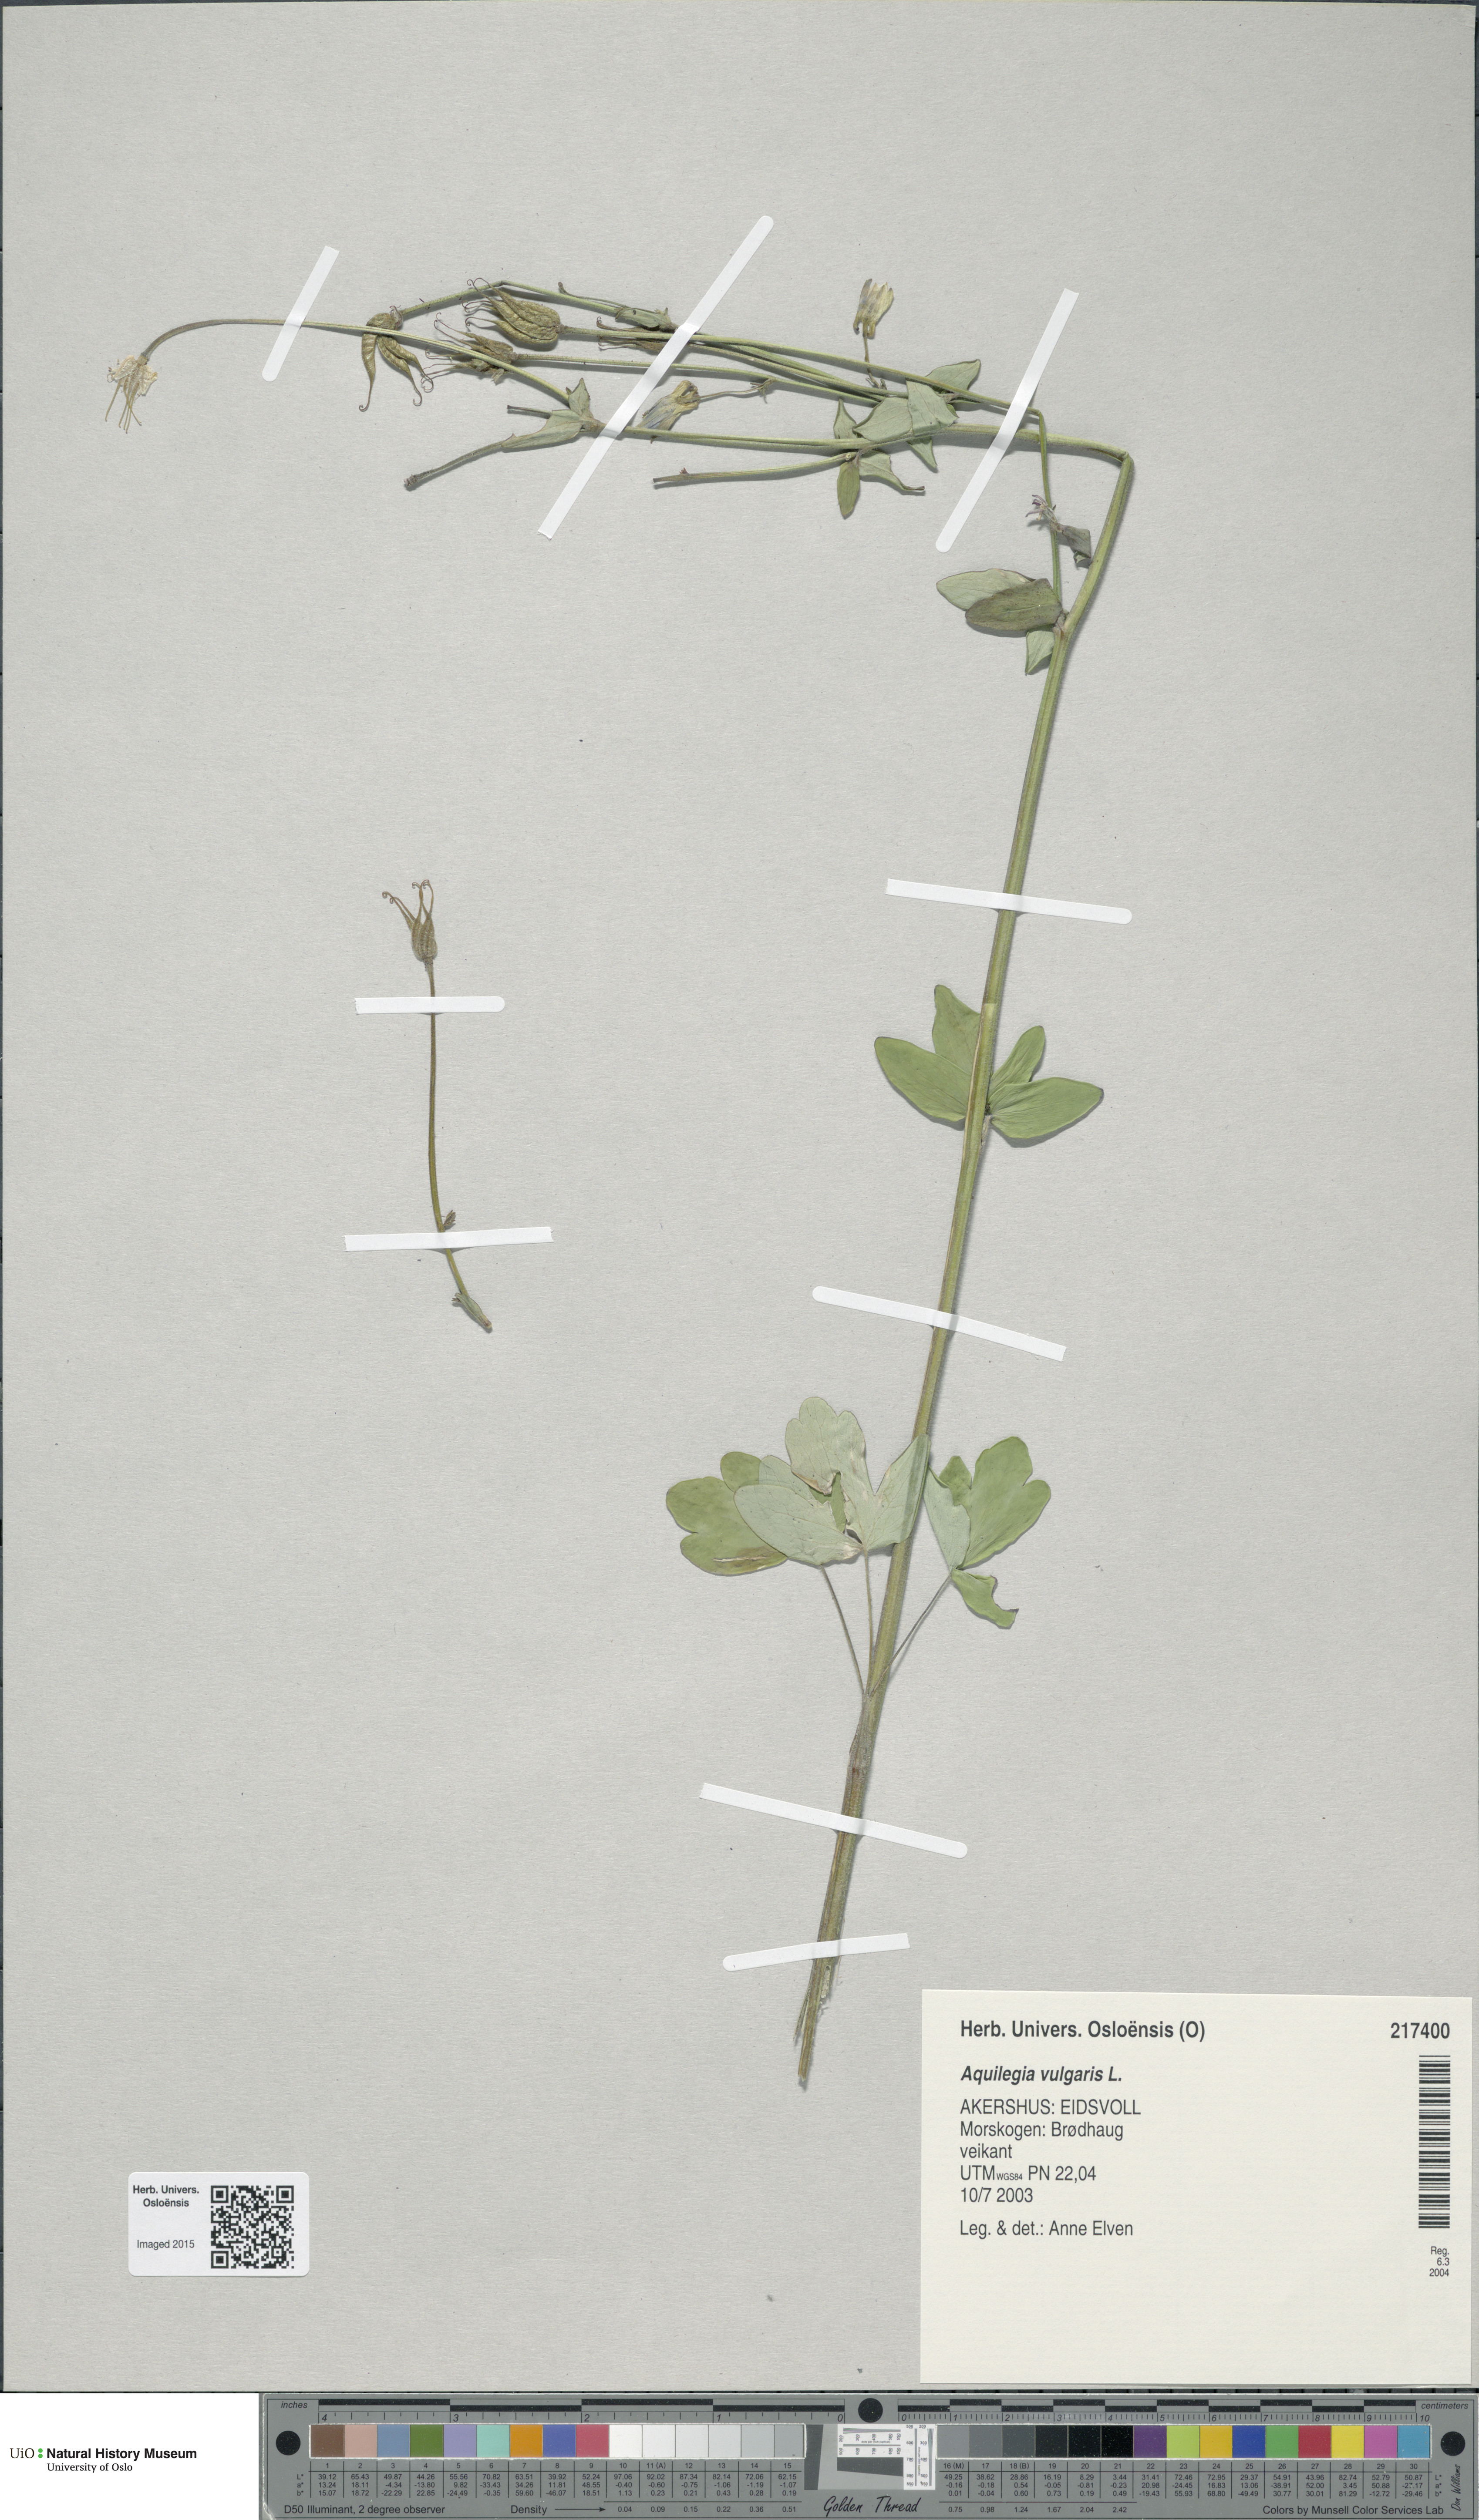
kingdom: Plantae
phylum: Tracheophyta
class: Magnoliopsida
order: Ranunculales
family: Ranunculaceae
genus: Aquilegia
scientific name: Aquilegia vulgaris
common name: Columbine
